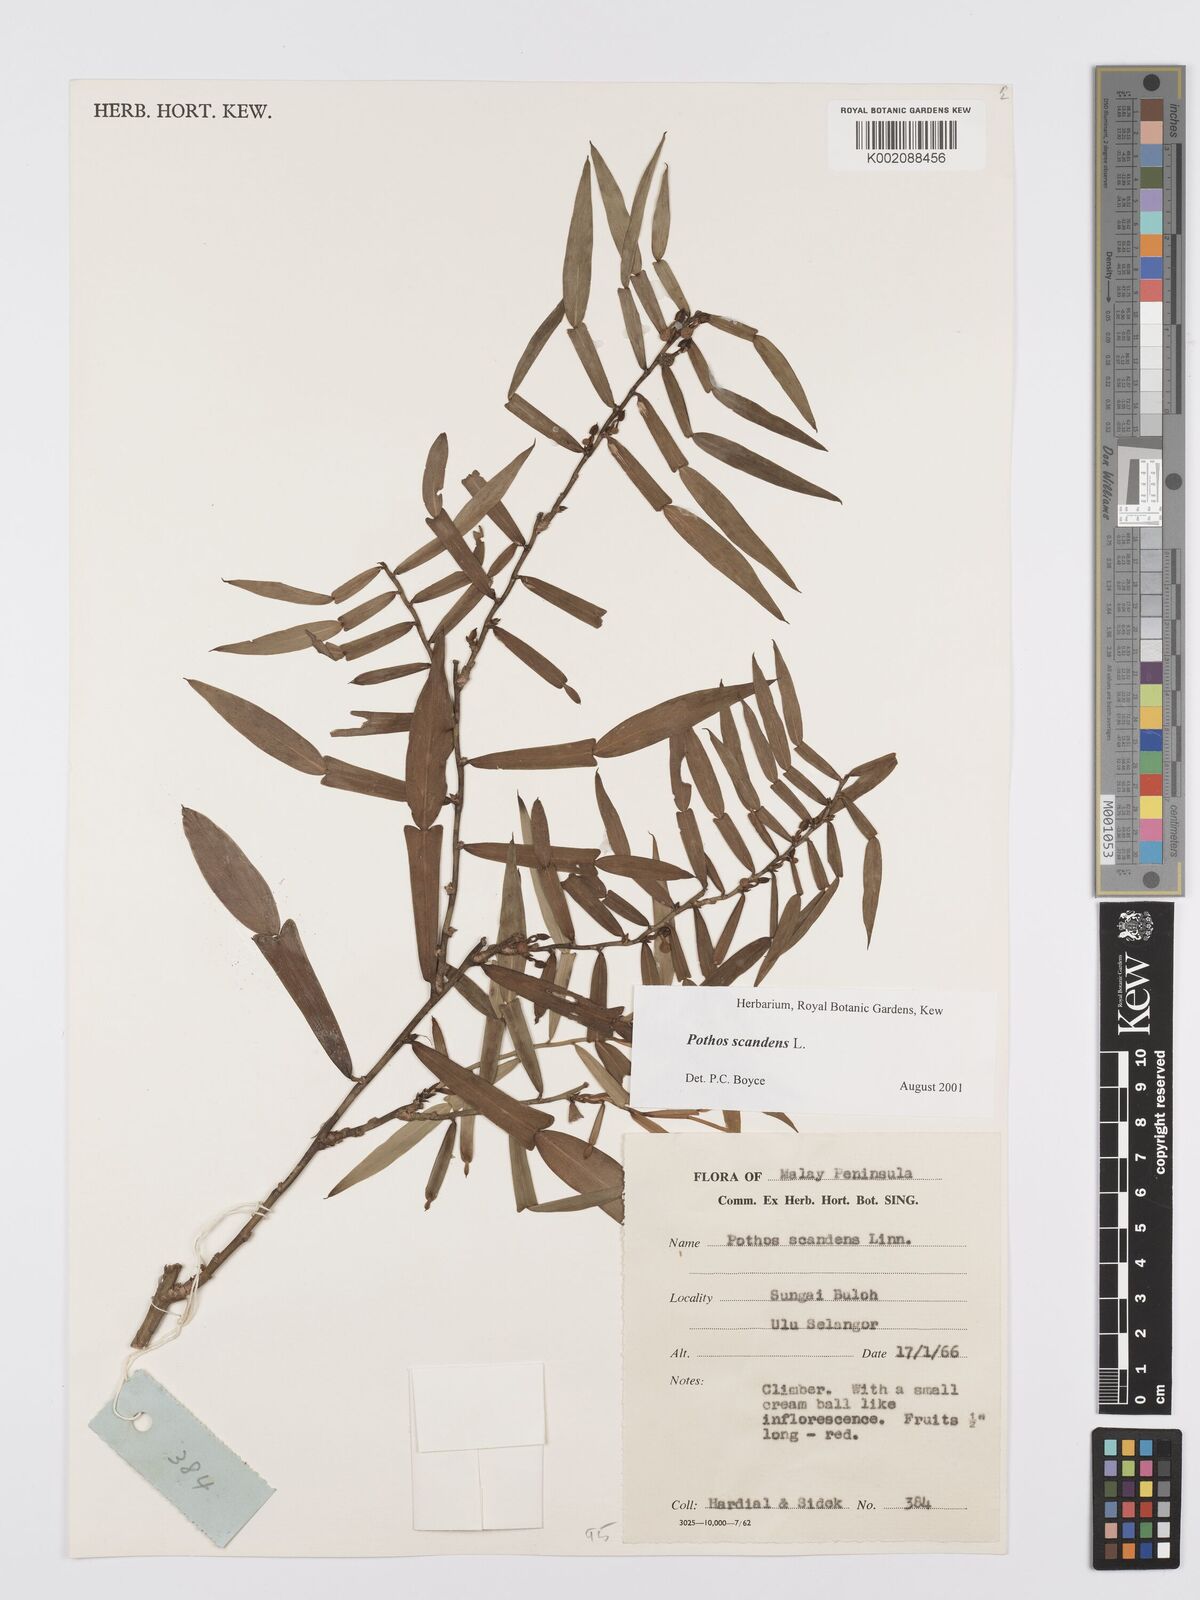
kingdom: Plantae
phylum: Tracheophyta
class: Liliopsida
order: Alismatales
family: Araceae
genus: Pothos
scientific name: Pothos scandens
